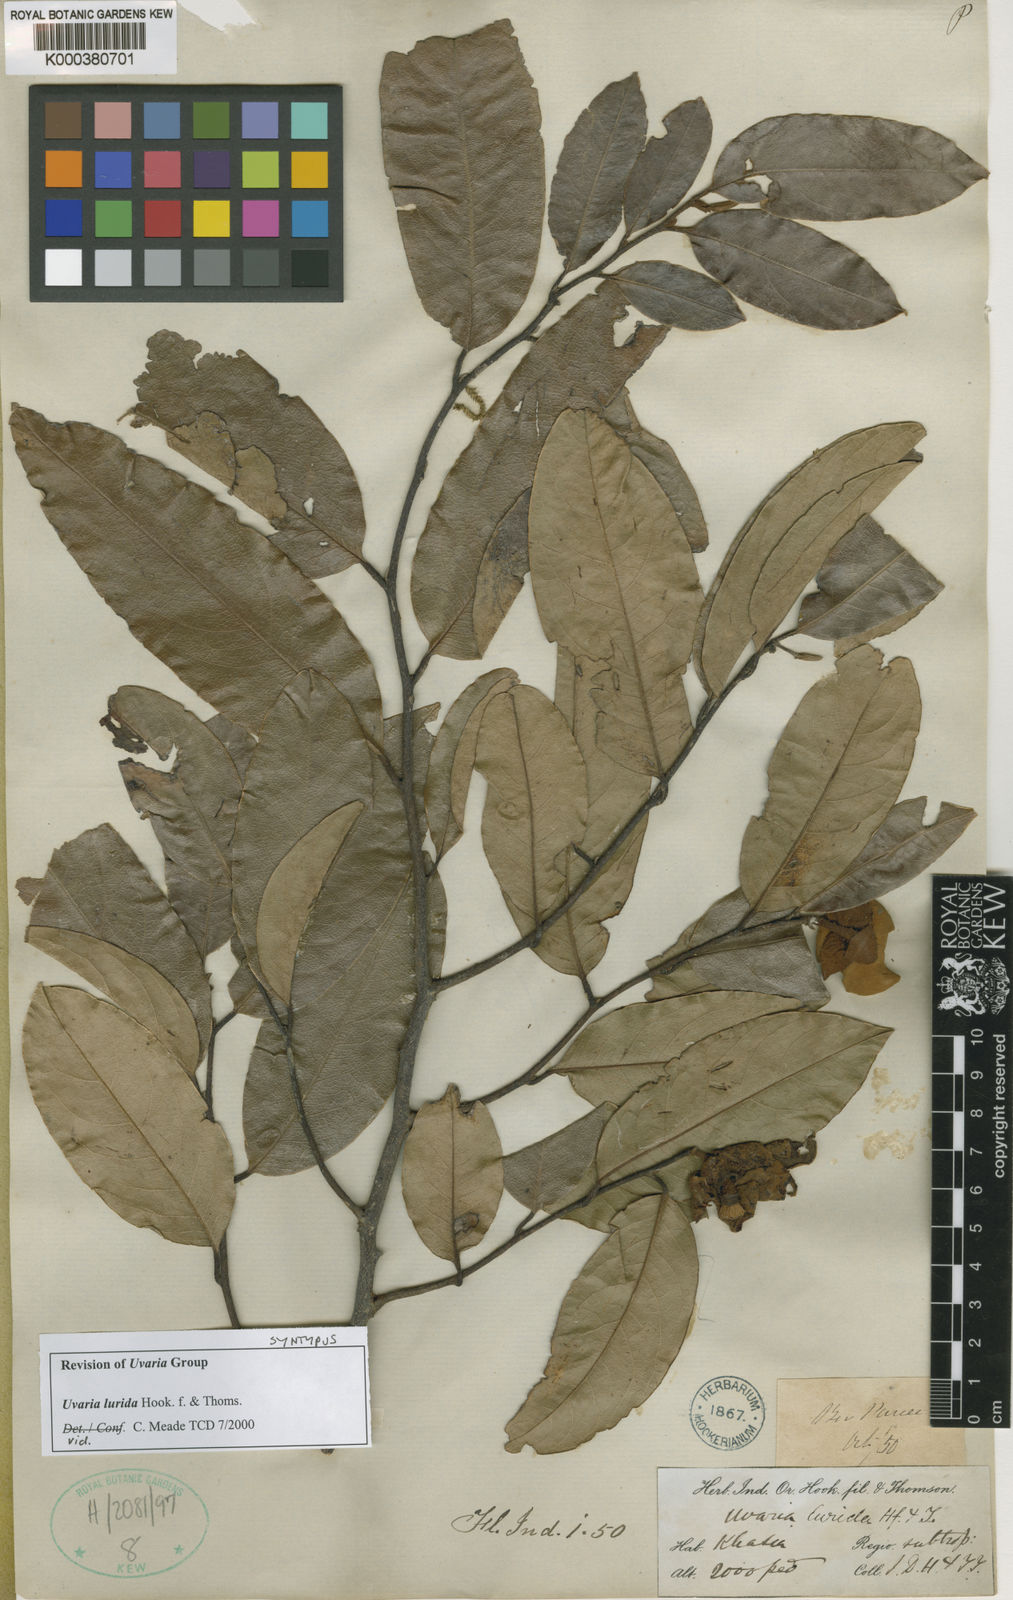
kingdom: Plantae
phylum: Tracheophyta
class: Magnoliopsida
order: Magnoliales
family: Annonaceae
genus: Uvaria
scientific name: Uvaria concava
